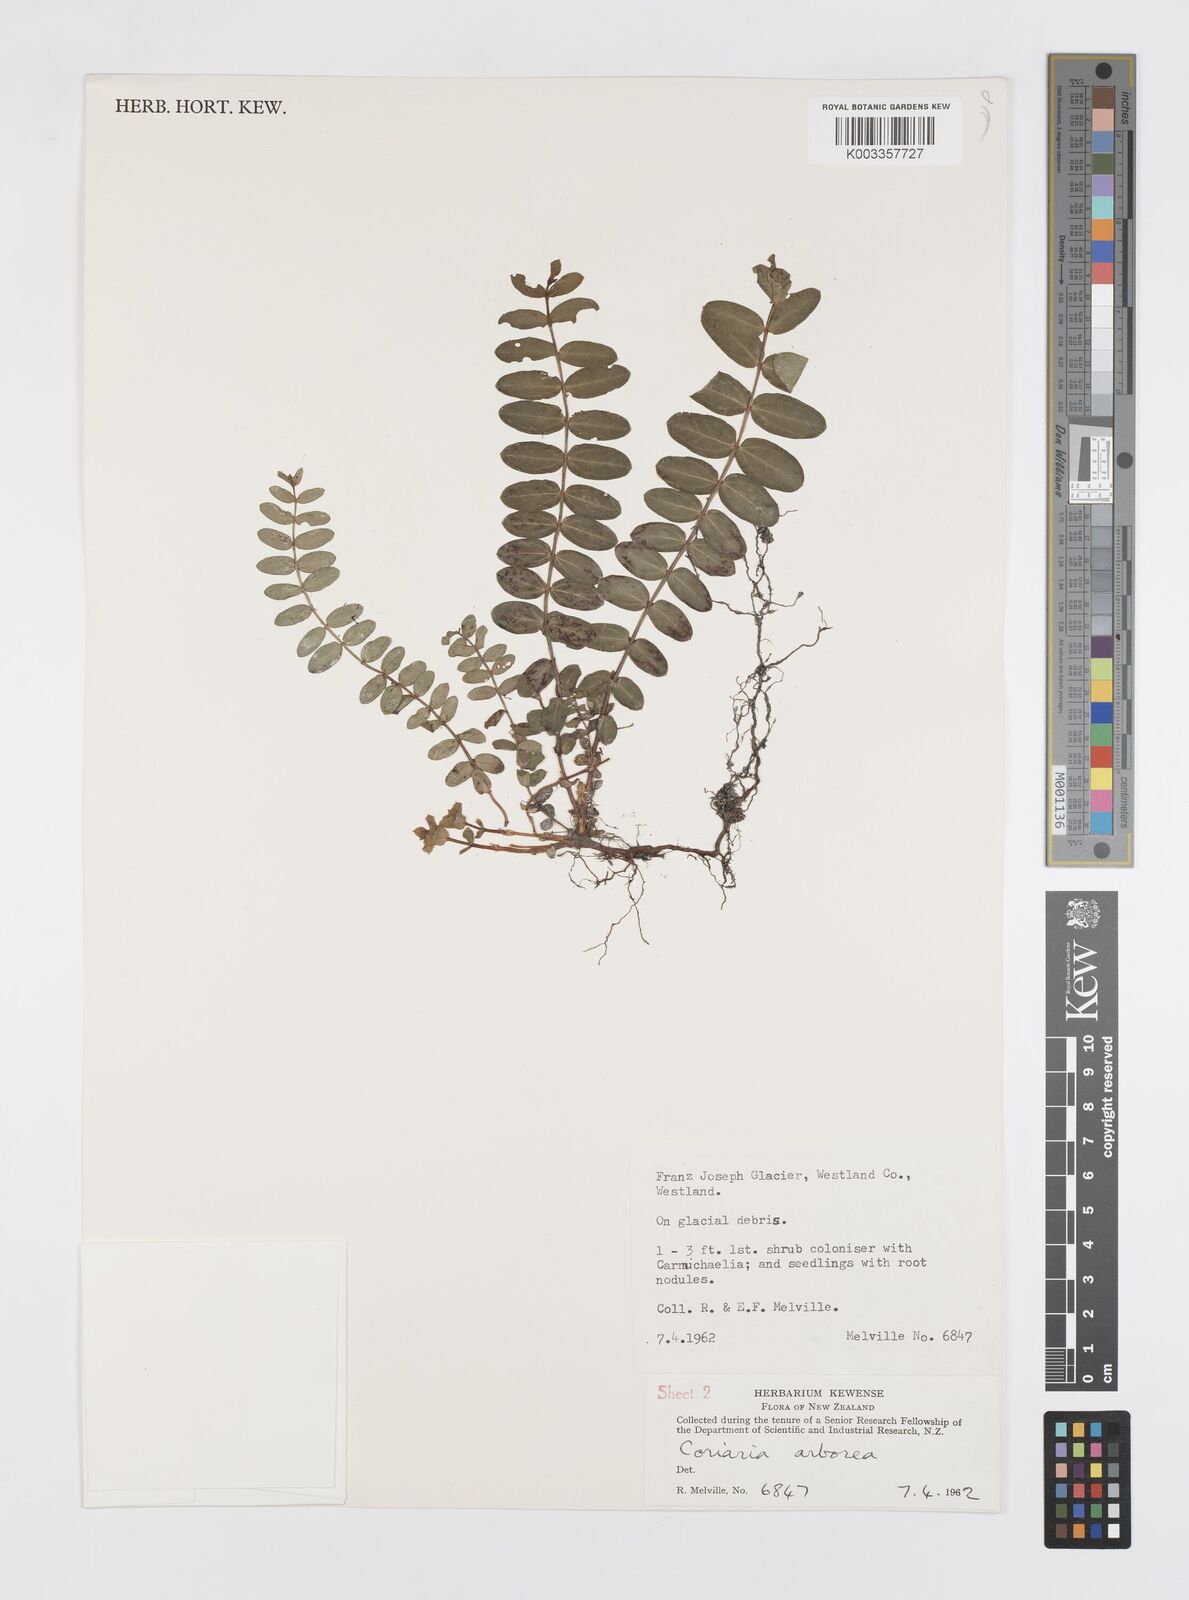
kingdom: Plantae
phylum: Tracheophyta
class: Magnoliopsida
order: Cucurbitales
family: Coriariaceae
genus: Coriaria
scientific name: Coriaria plumosa
